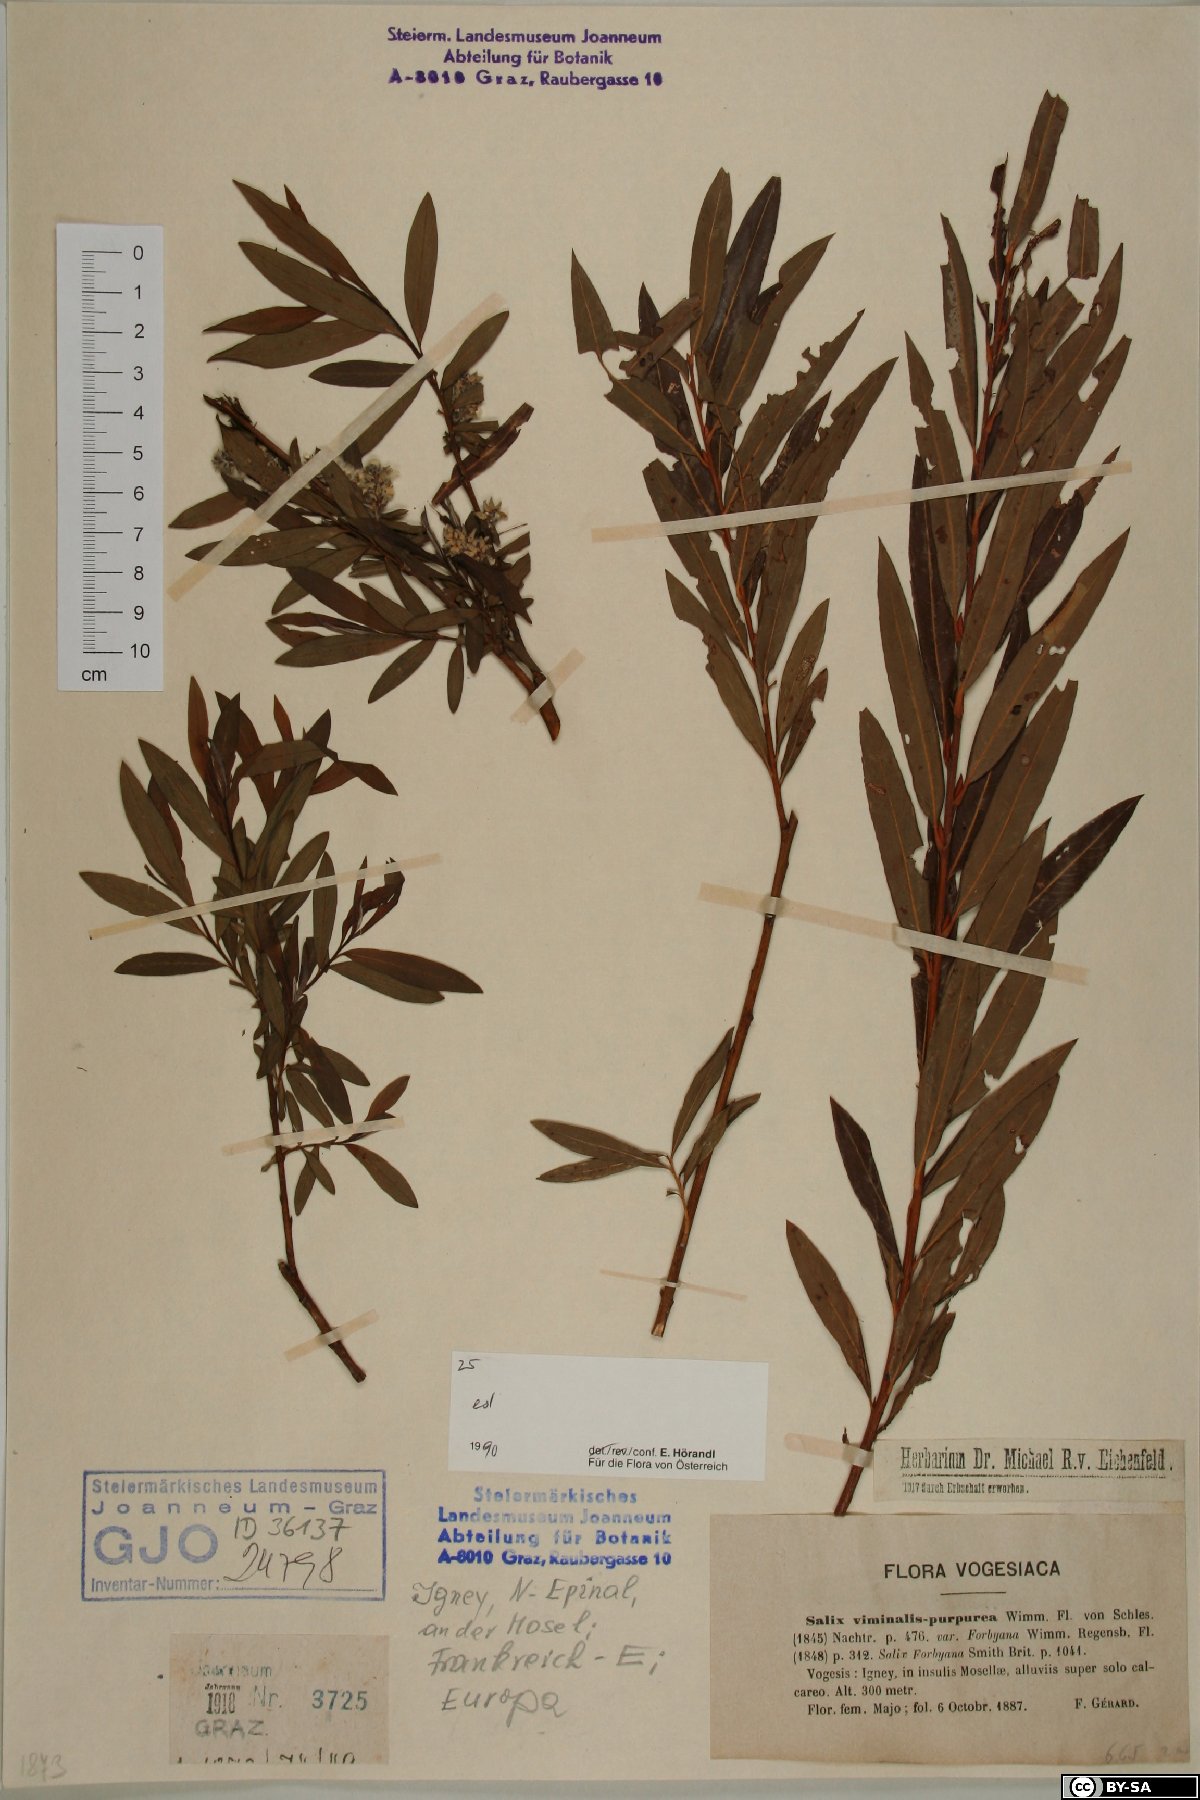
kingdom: Plantae
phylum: Tracheophyta
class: Magnoliopsida
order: Malpighiales
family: Salicaceae
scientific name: Salicaceae
